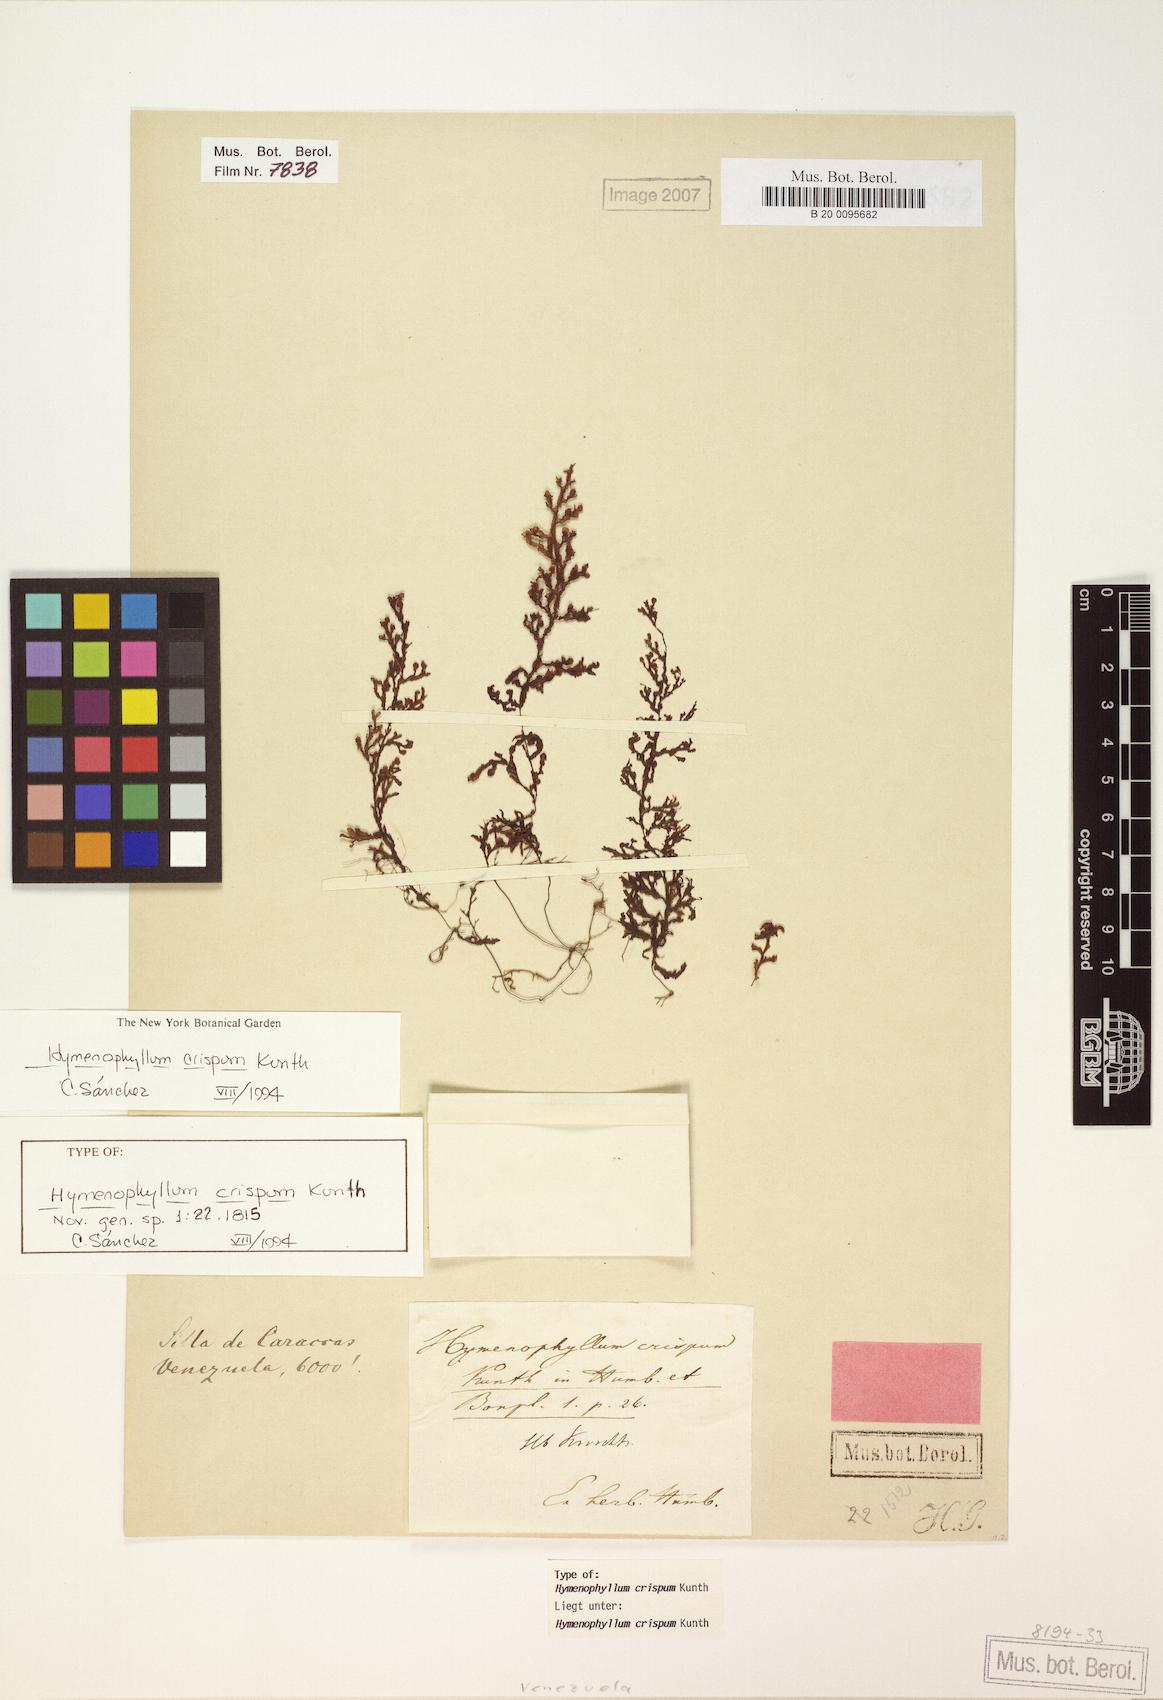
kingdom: Plantae
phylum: Tracheophyta
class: Polypodiopsida
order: Hymenophyllales
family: Hymenophyllaceae
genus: Hymenophyllum
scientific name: Hymenophyllum crispum
